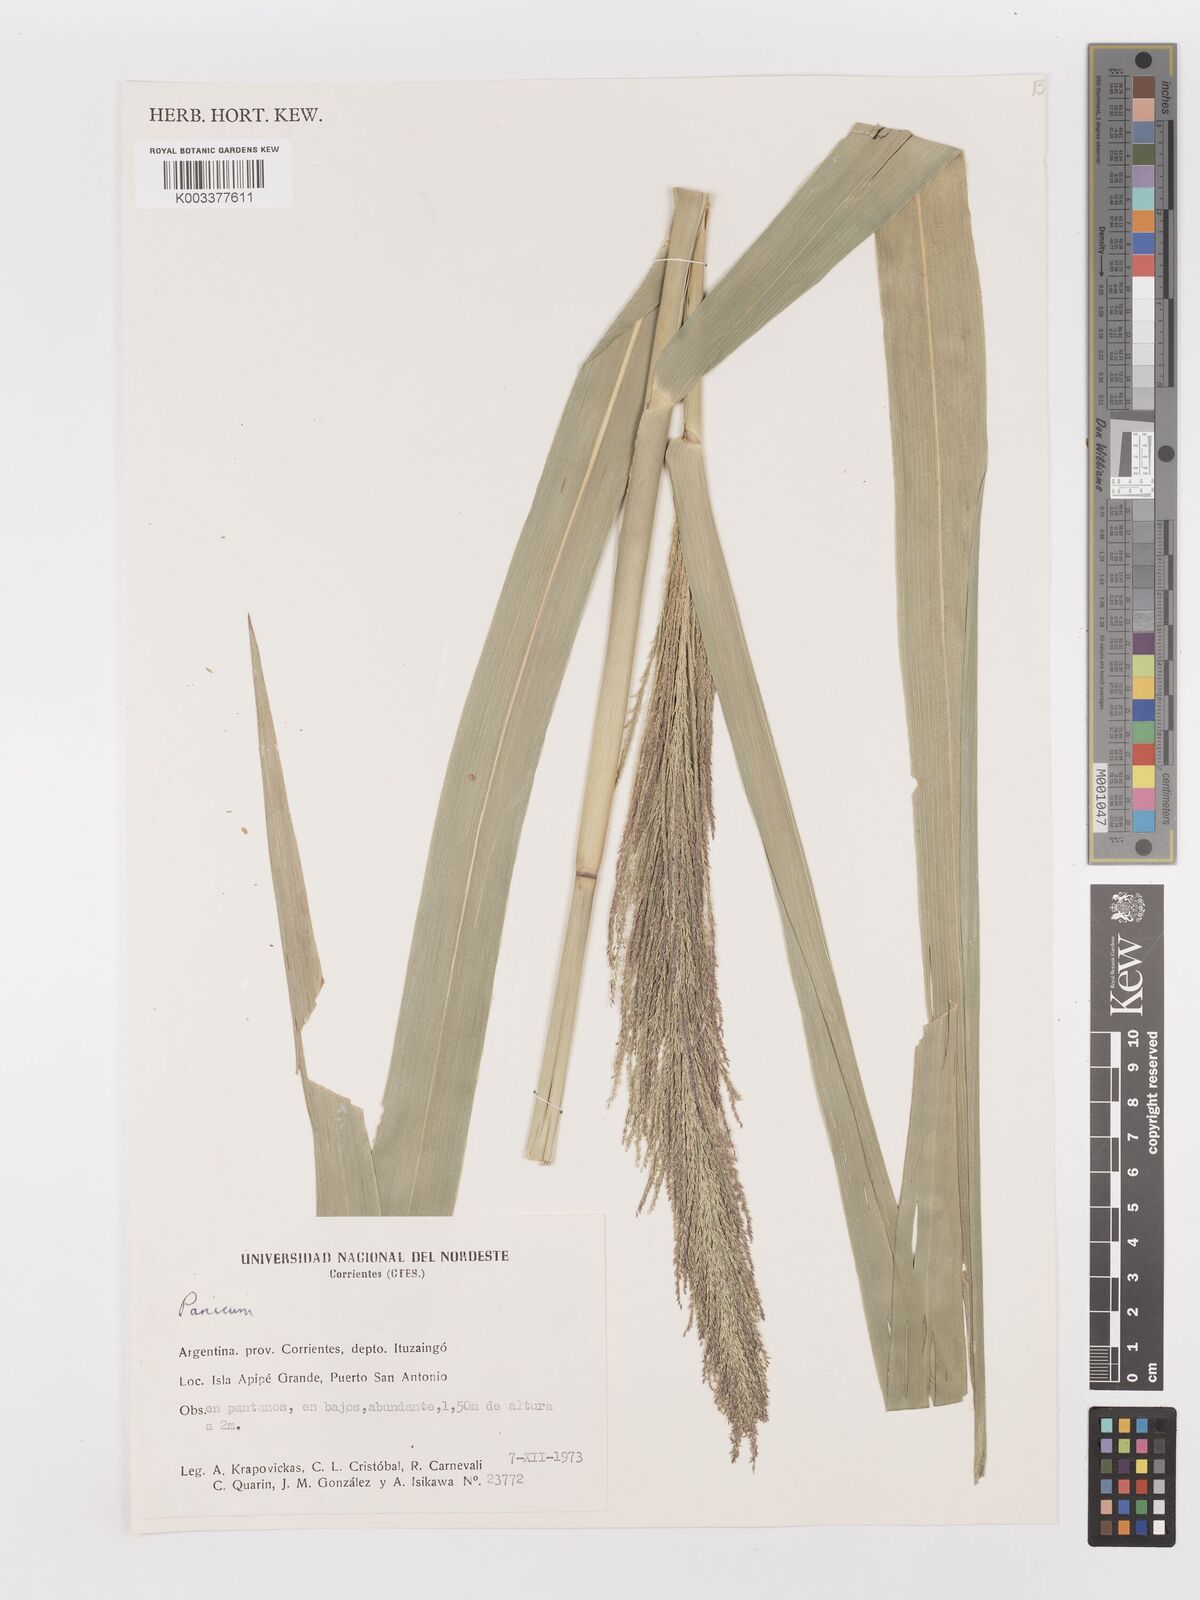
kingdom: Plantae
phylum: Tracheophyta
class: Liliopsida
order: Poales
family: Poaceae
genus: Hymenachne
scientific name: Hymenachne pernambucensis
